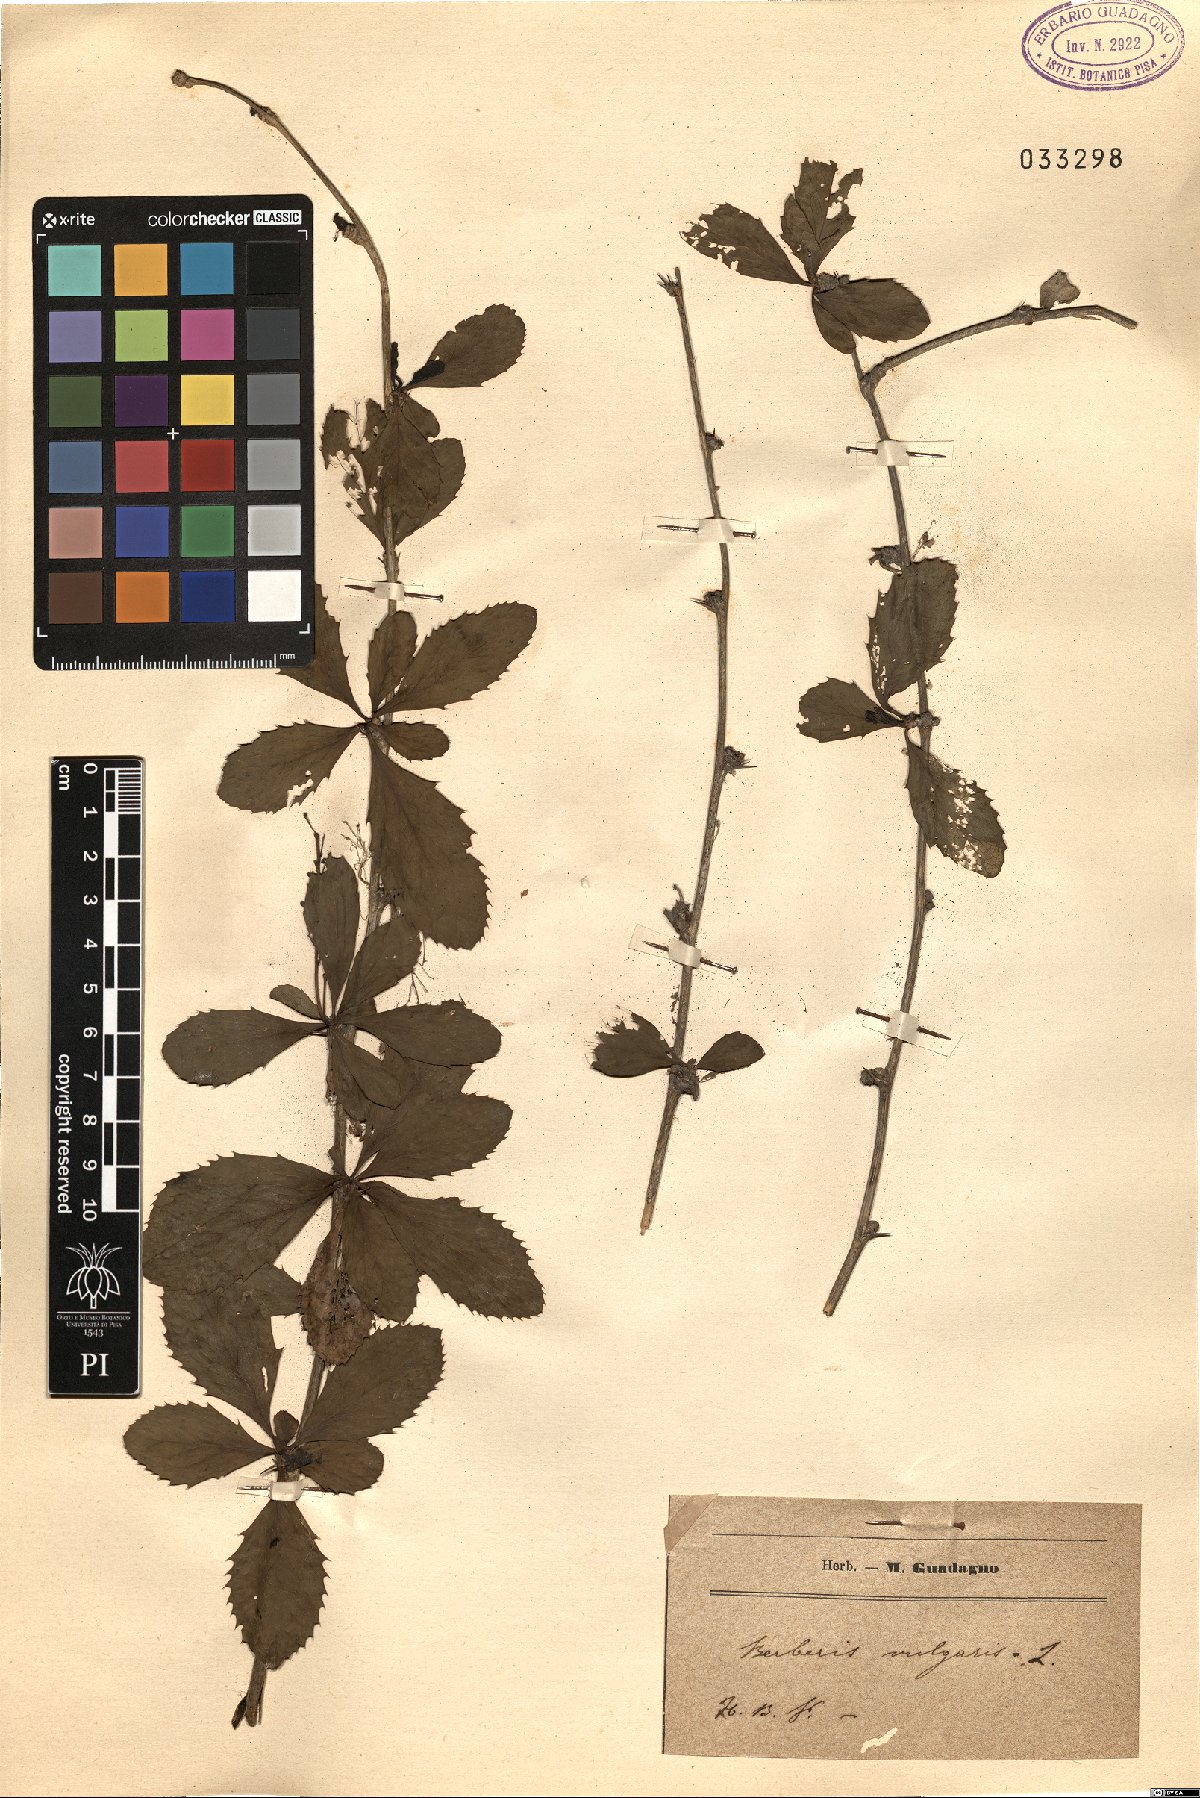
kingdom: Plantae
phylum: Tracheophyta
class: Magnoliopsida
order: Ranunculales
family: Berberidaceae
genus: Berberis
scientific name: Berberis vulgaris
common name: Barberry
